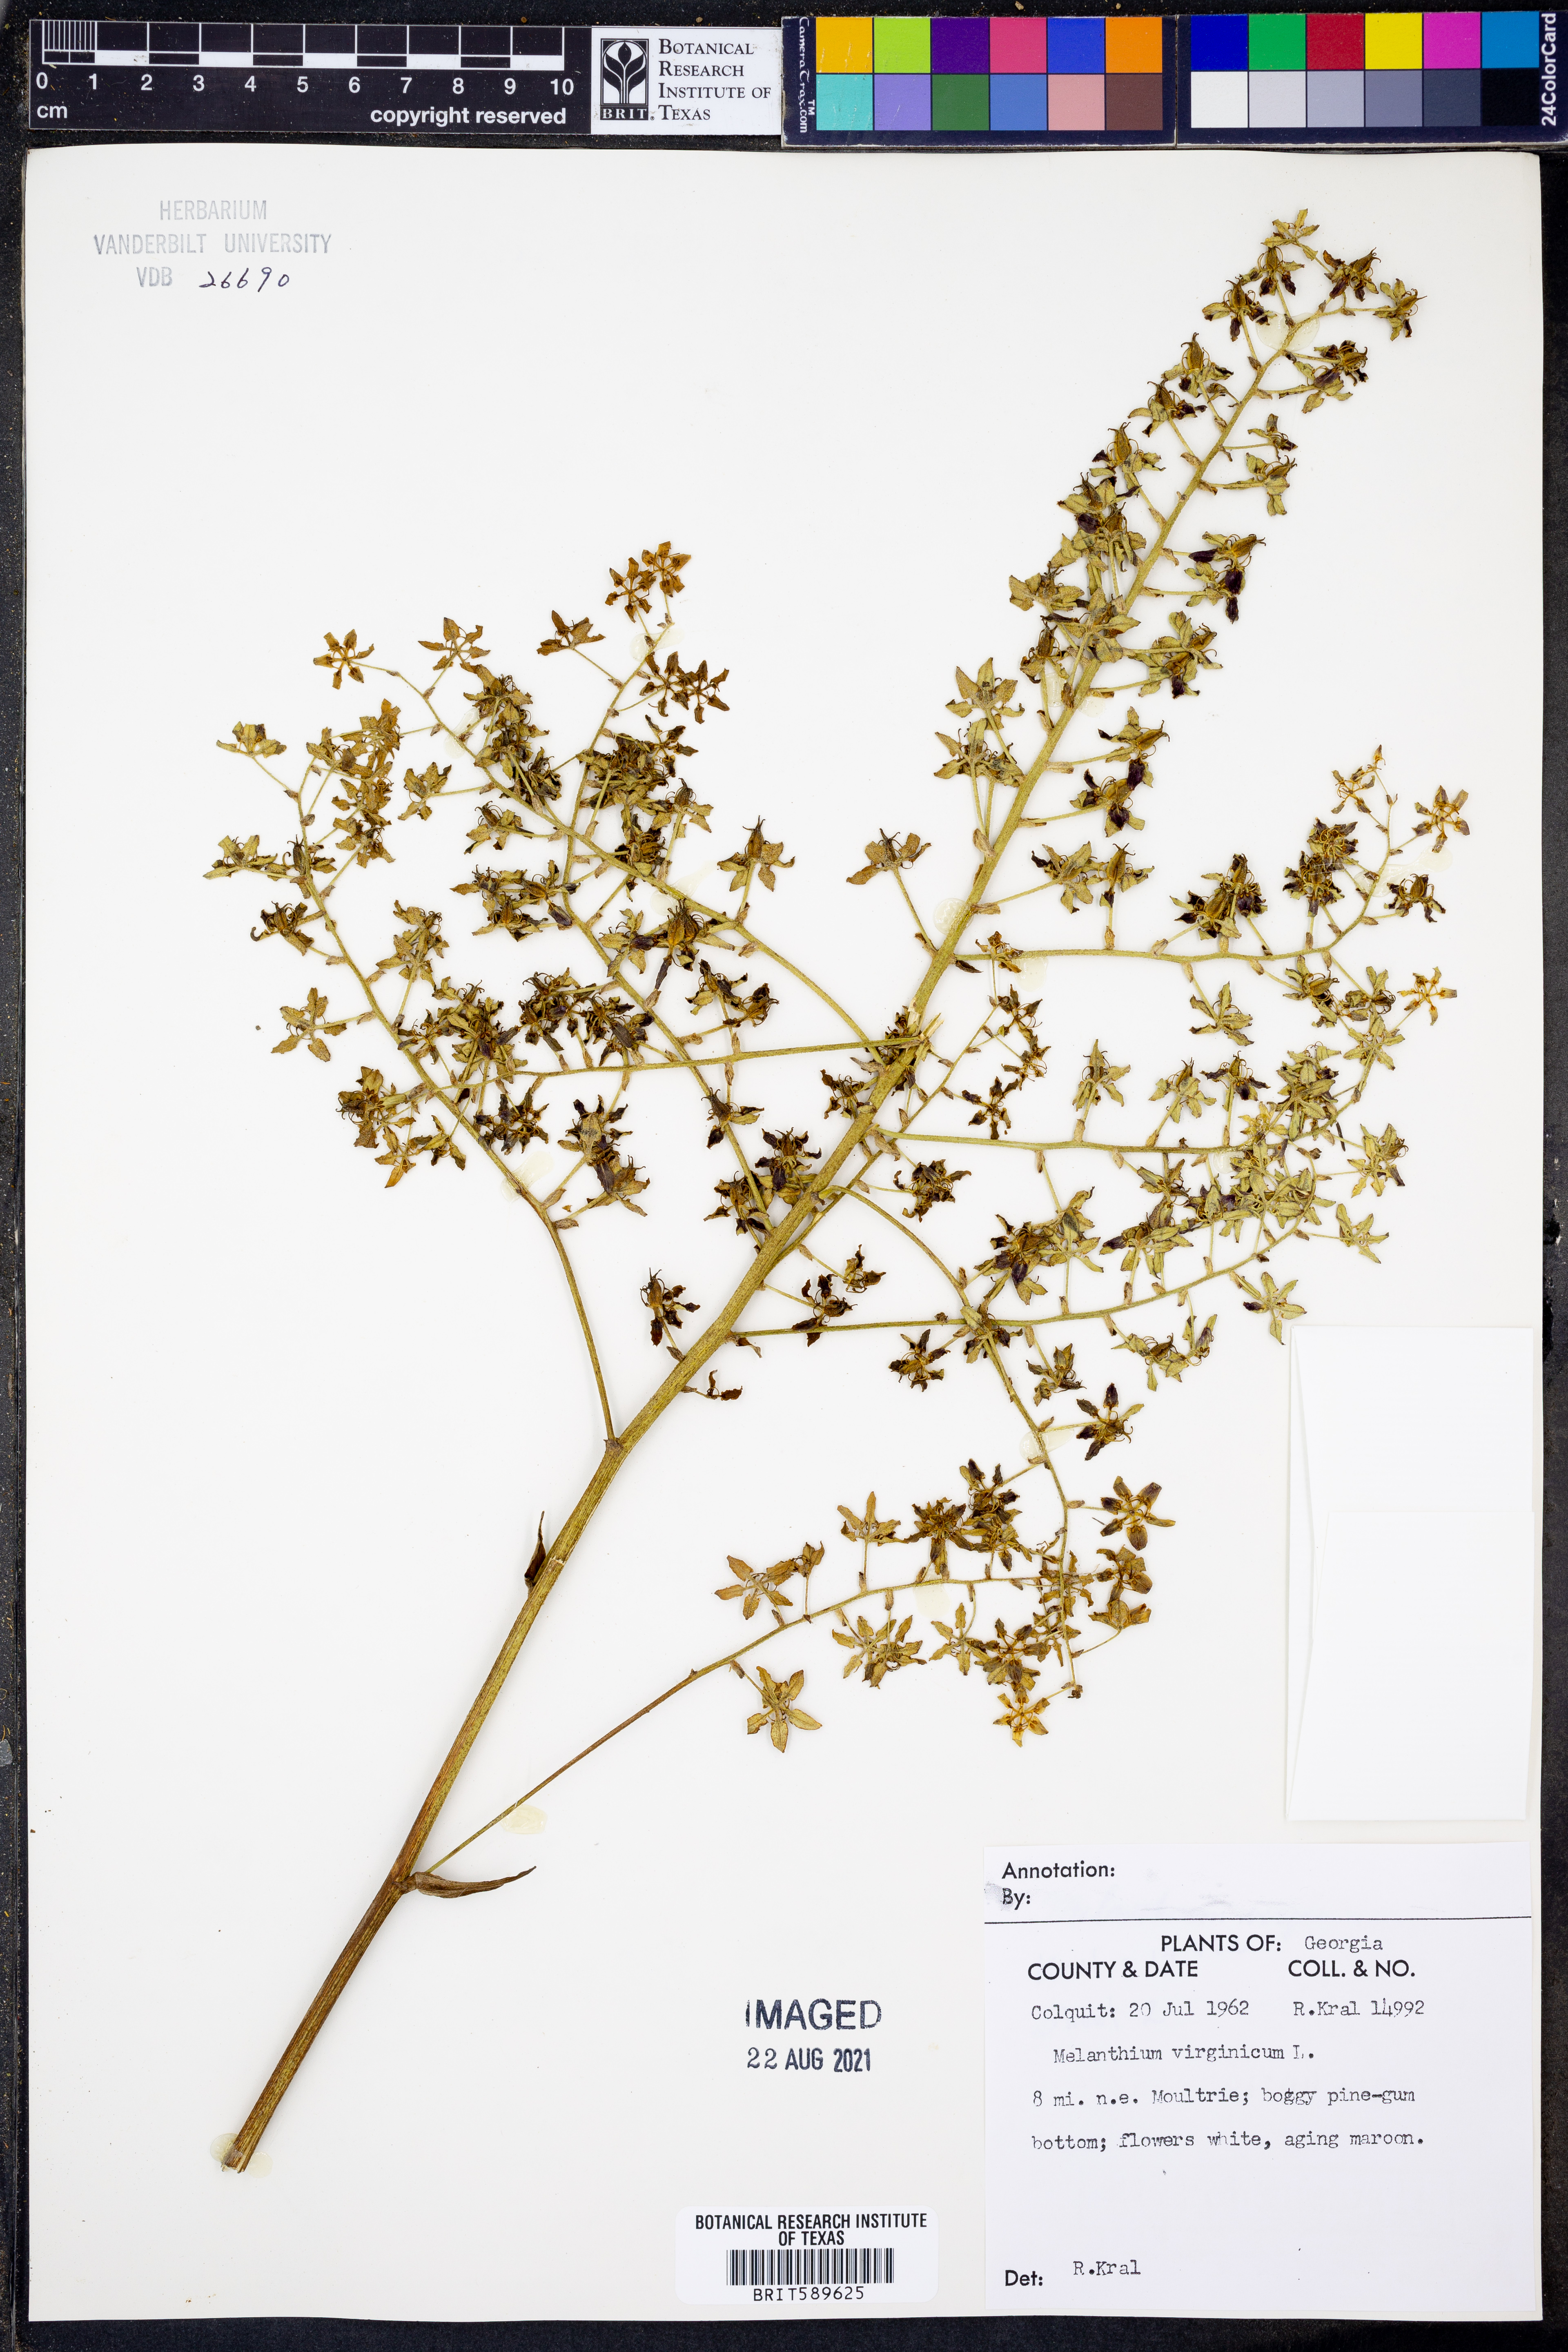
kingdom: Plantae
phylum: Tracheophyta
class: Liliopsida
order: Liliales
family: Melanthiaceae
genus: Melanthium
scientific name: Melanthium virginicum
